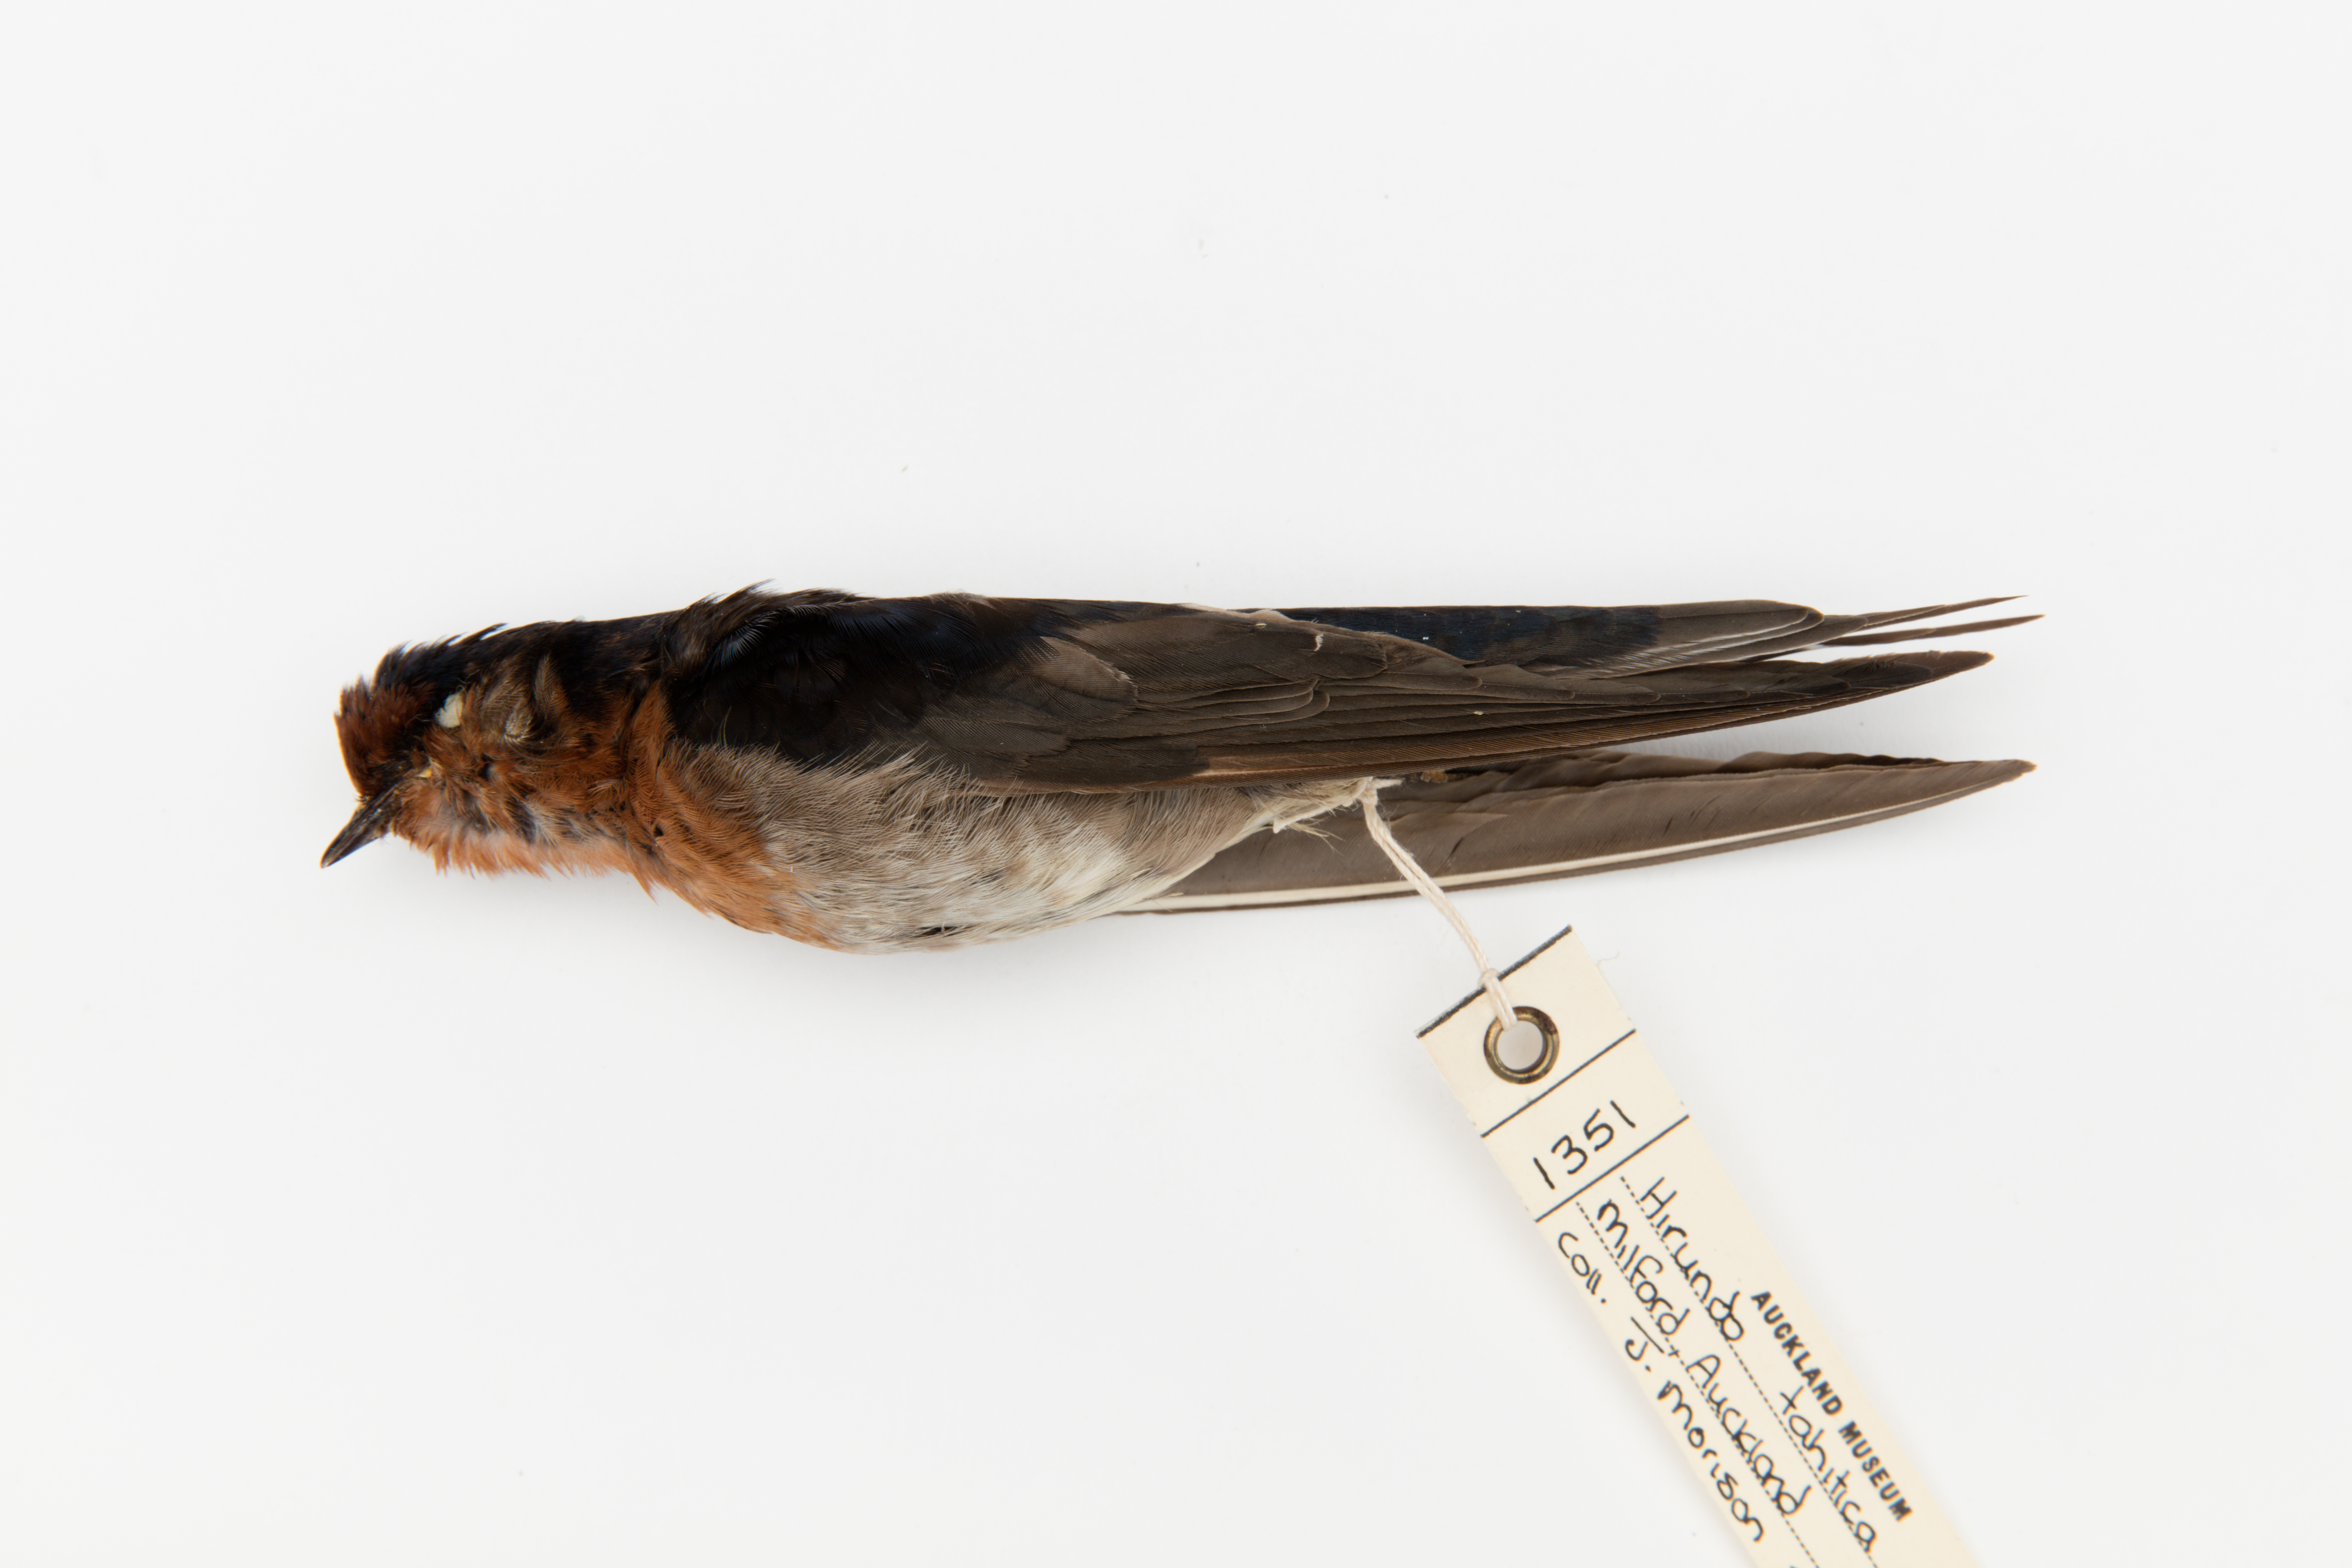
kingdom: Animalia
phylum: Chordata
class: Aves
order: Passeriformes
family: Hirundinidae
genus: Hirundo
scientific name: Hirundo neoxena
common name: Welcome swallow
